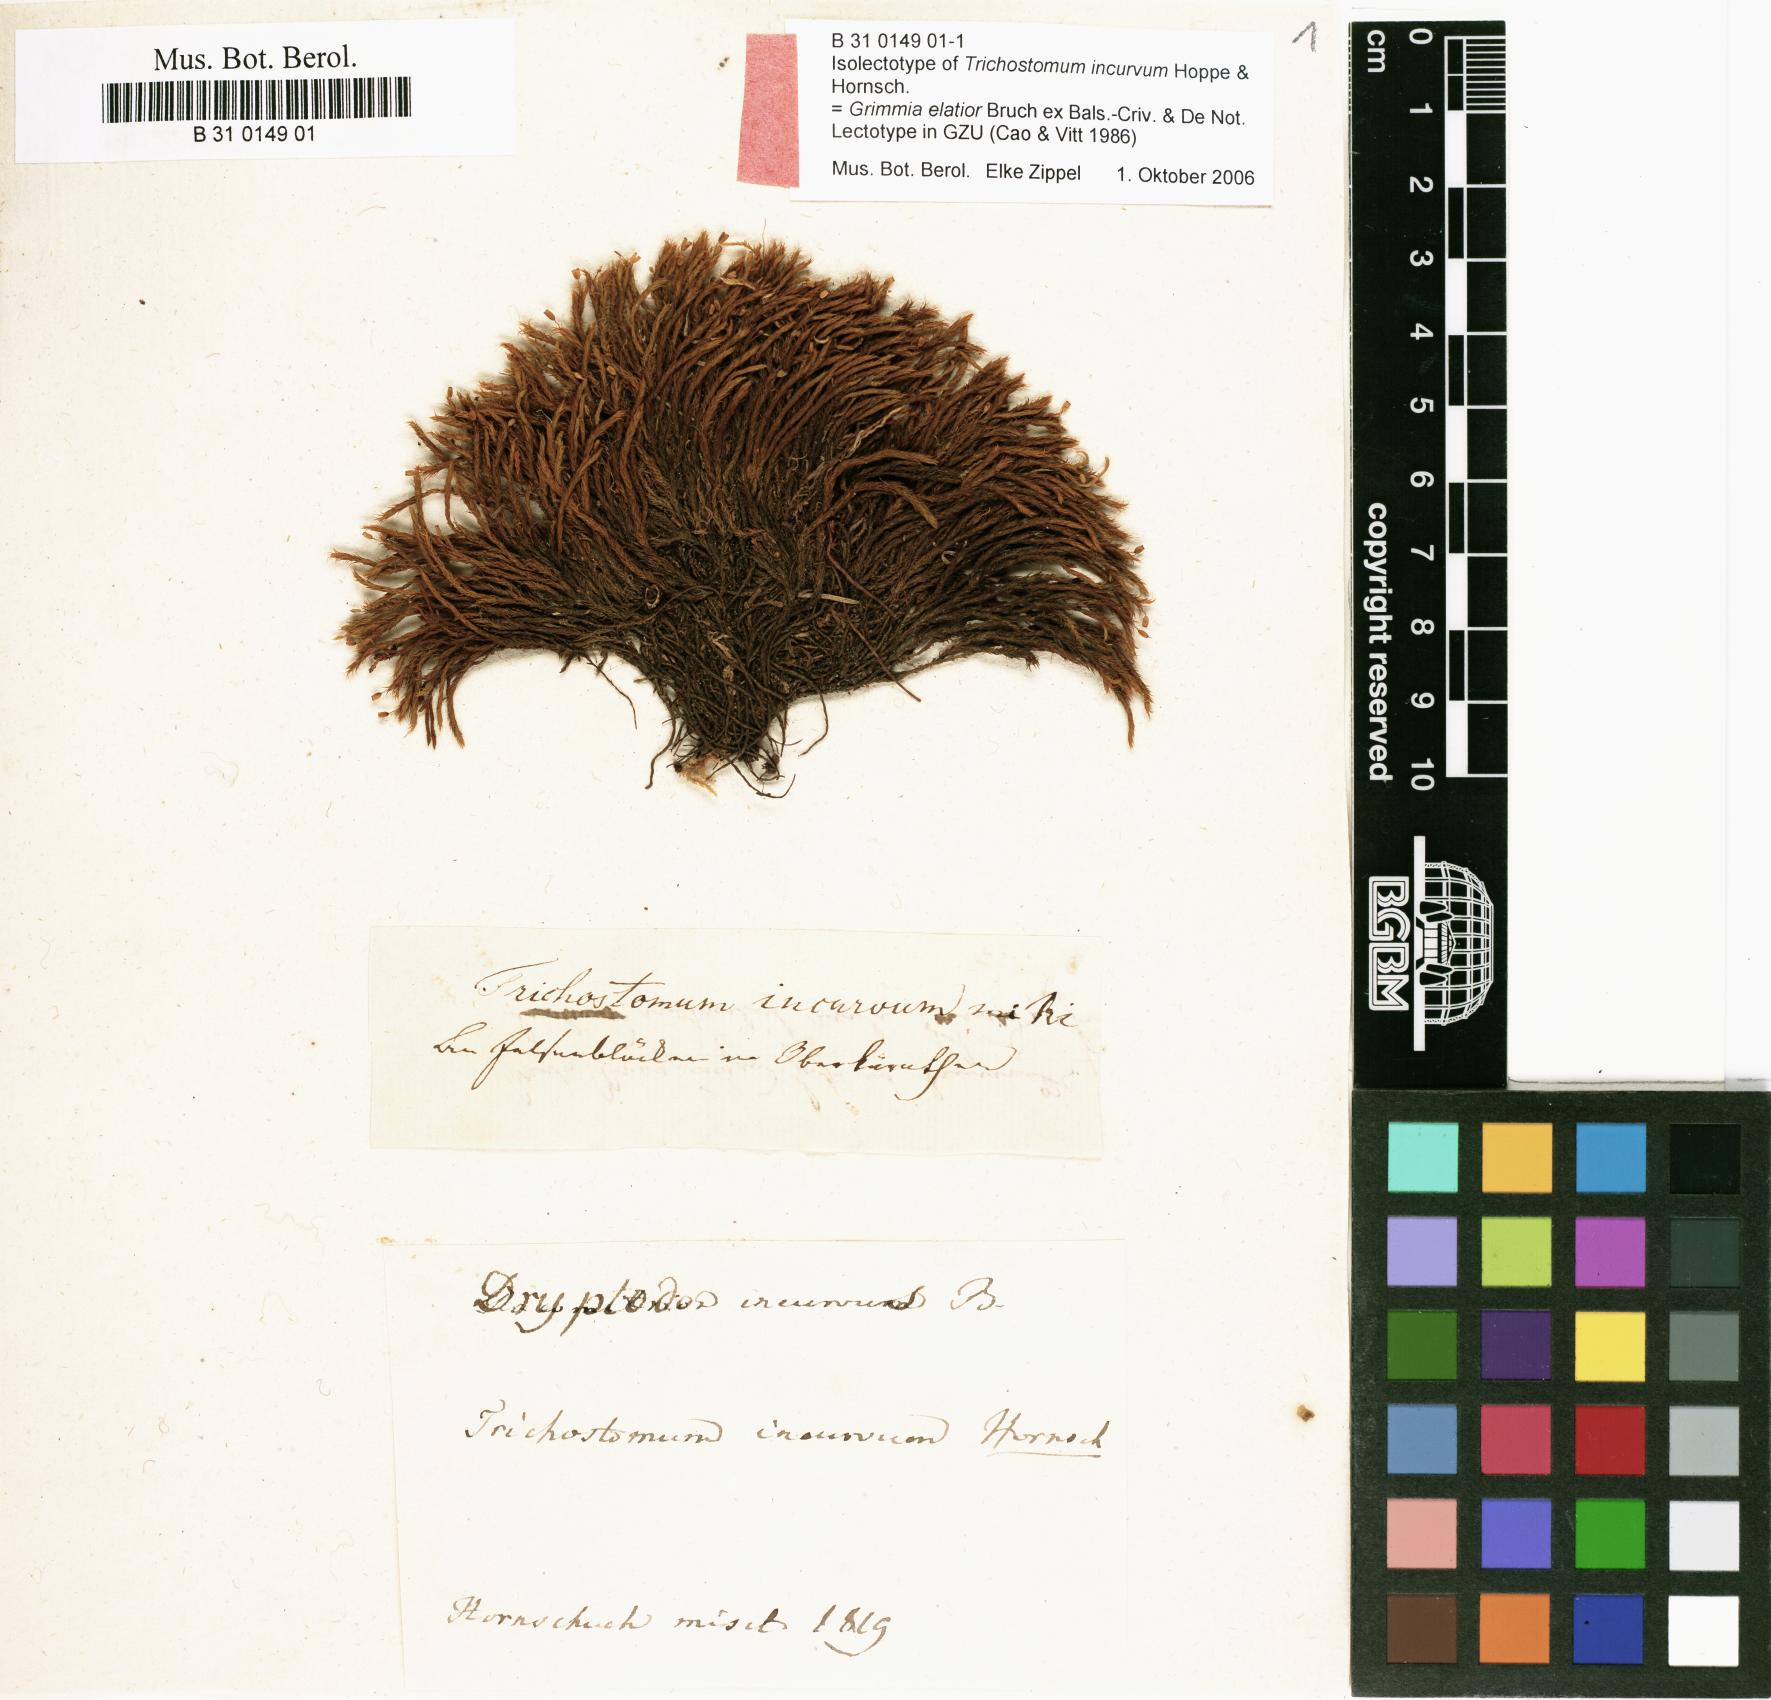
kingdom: Plantae
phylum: Bryophyta
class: Bryopsida
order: Grimmiales
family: Grimmiaceae
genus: Grimmia
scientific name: Grimmia elatior
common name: Large grimmia
